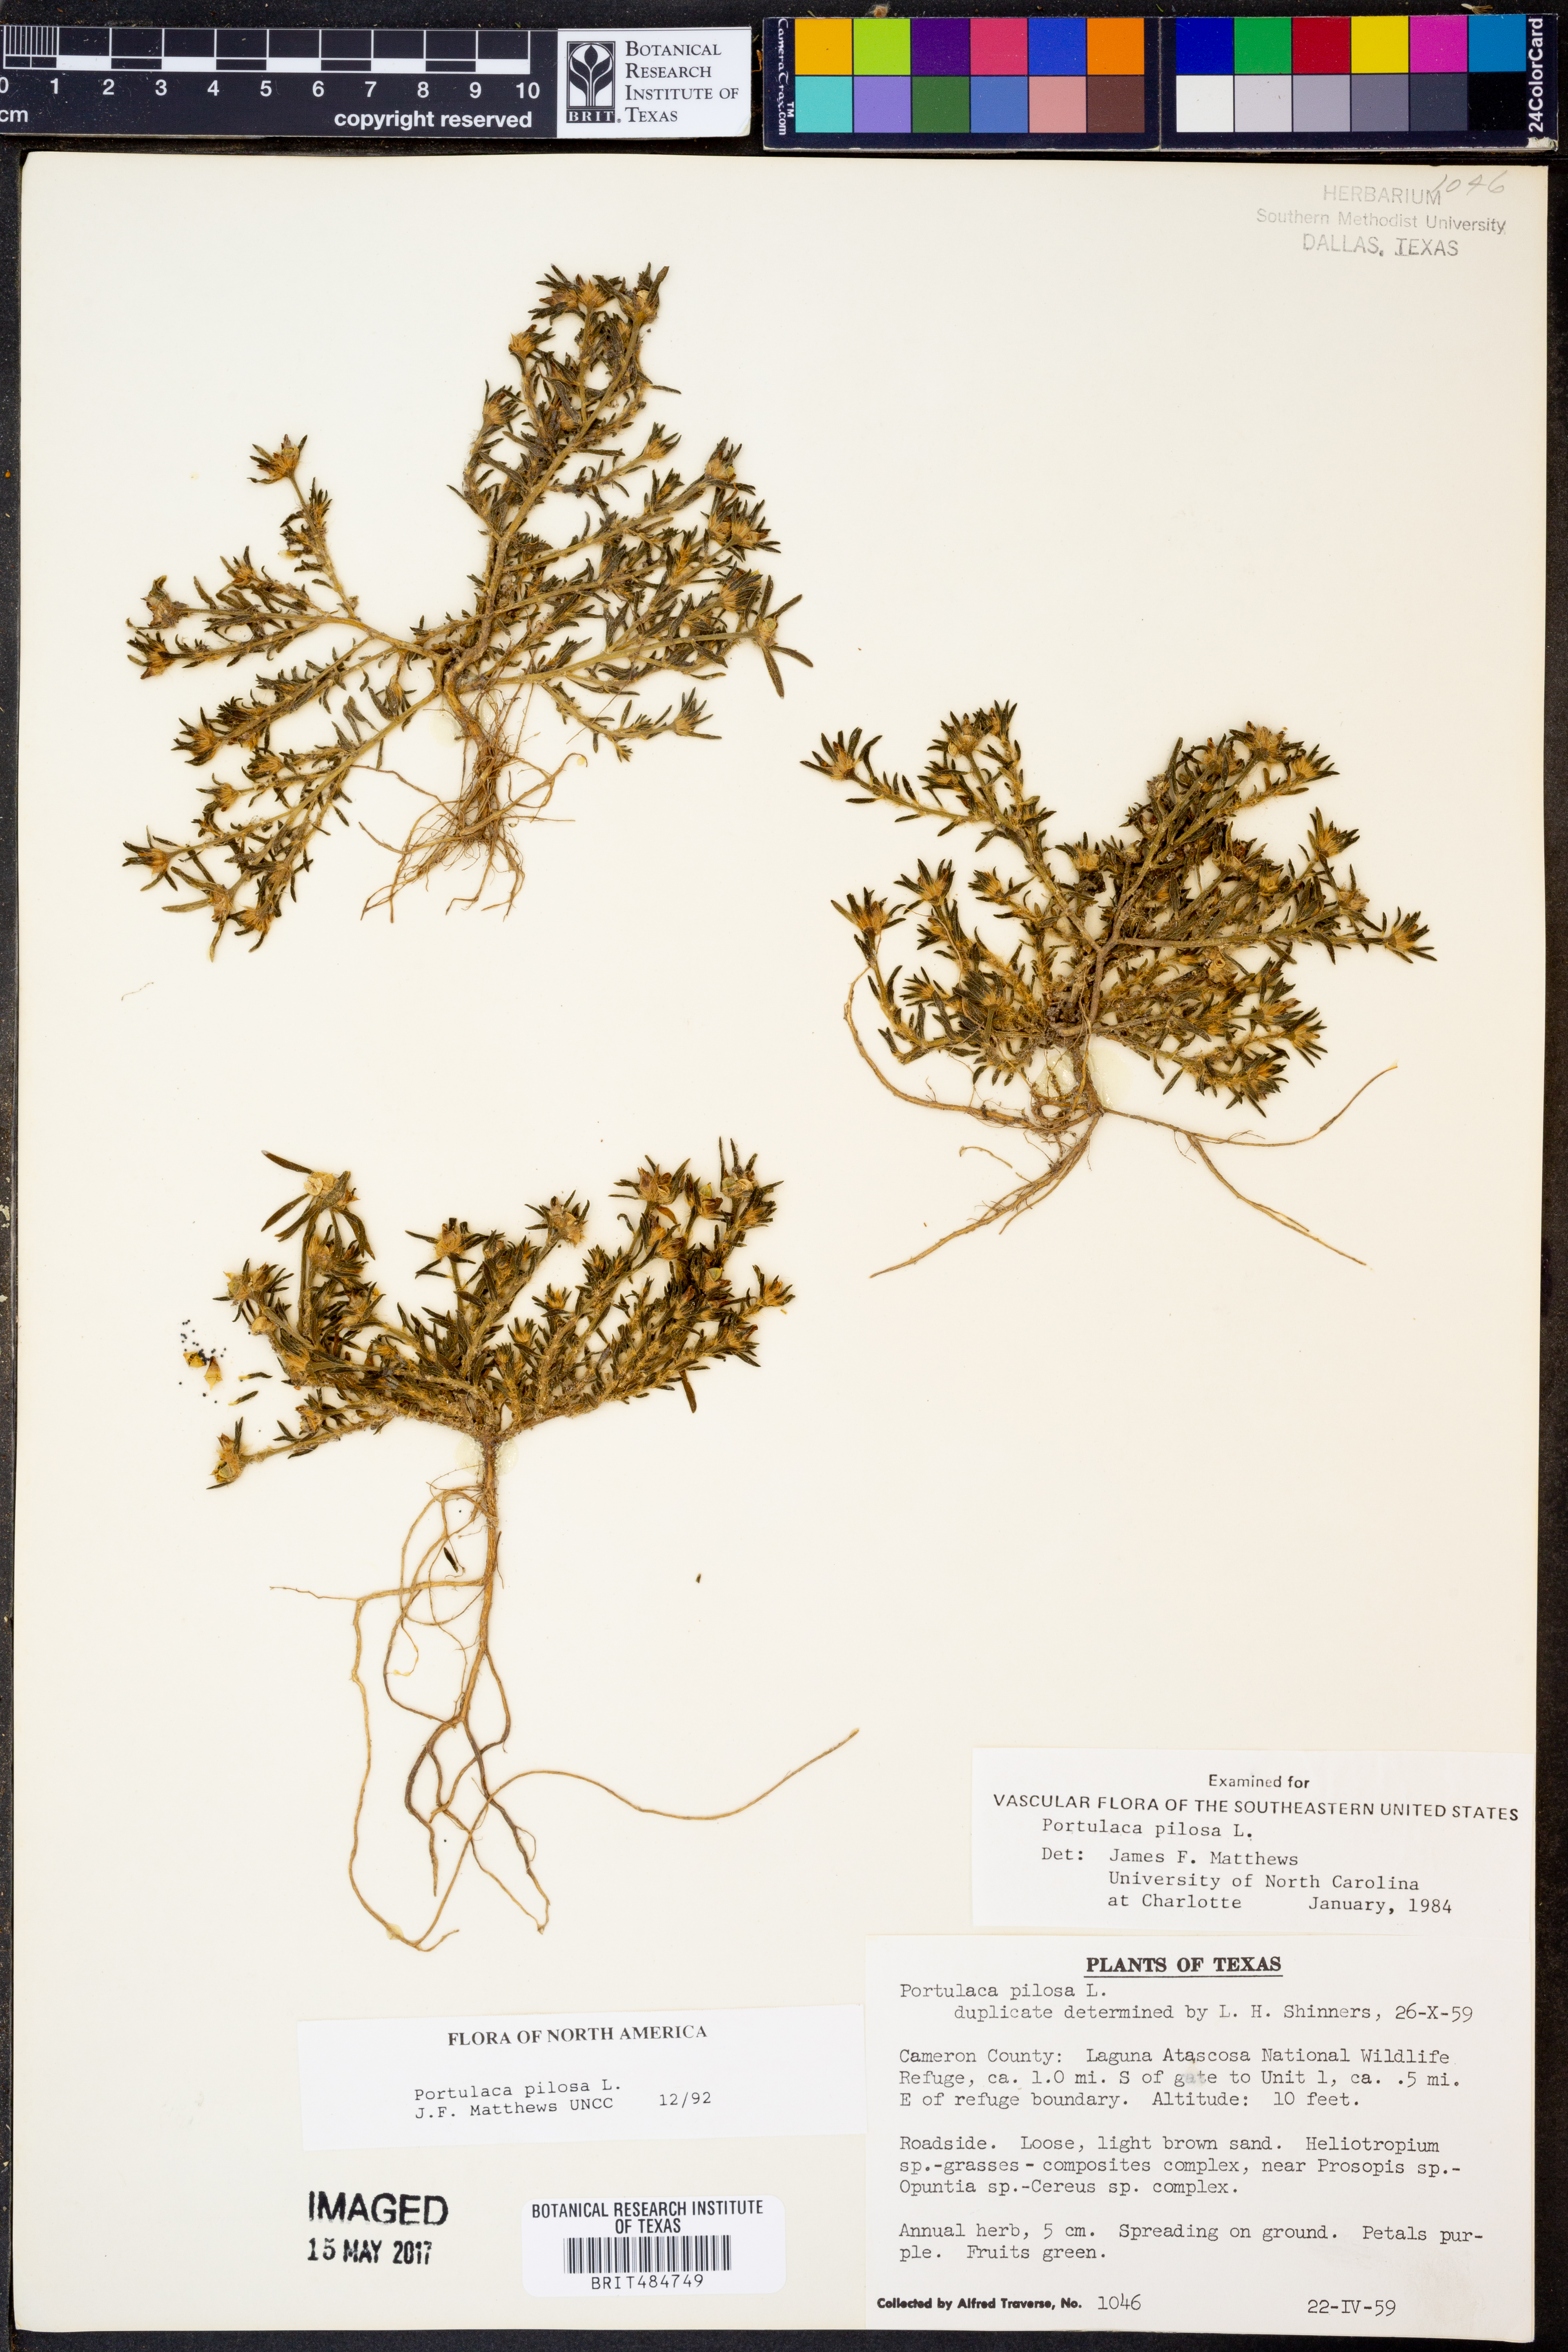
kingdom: Plantae
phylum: Tracheophyta
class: Magnoliopsida
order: Caryophyllales
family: Portulacaceae
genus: Portulaca
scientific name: Portulaca pilosa
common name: Kiss me quick
